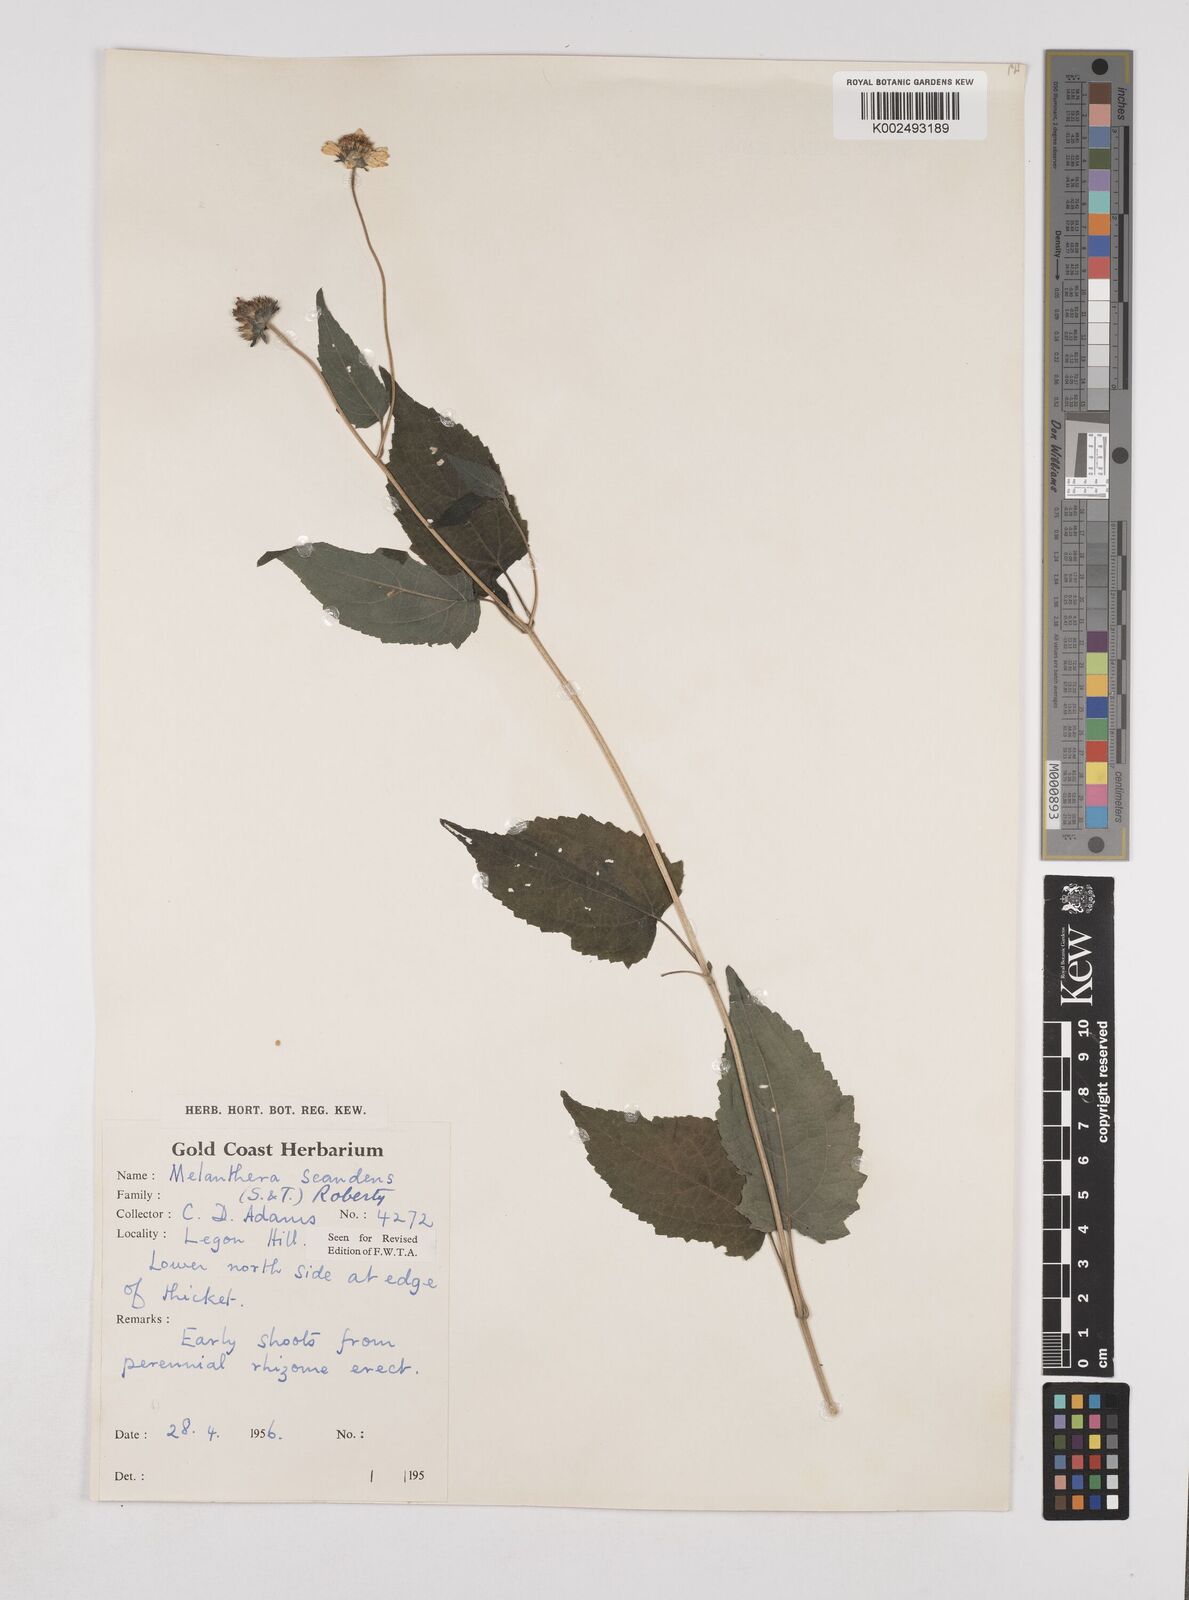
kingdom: Plantae
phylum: Tracheophyta
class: Magnoliopsida
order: Asterales
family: Asteraceae
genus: Lipotriche
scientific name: Lipotriche scandens
